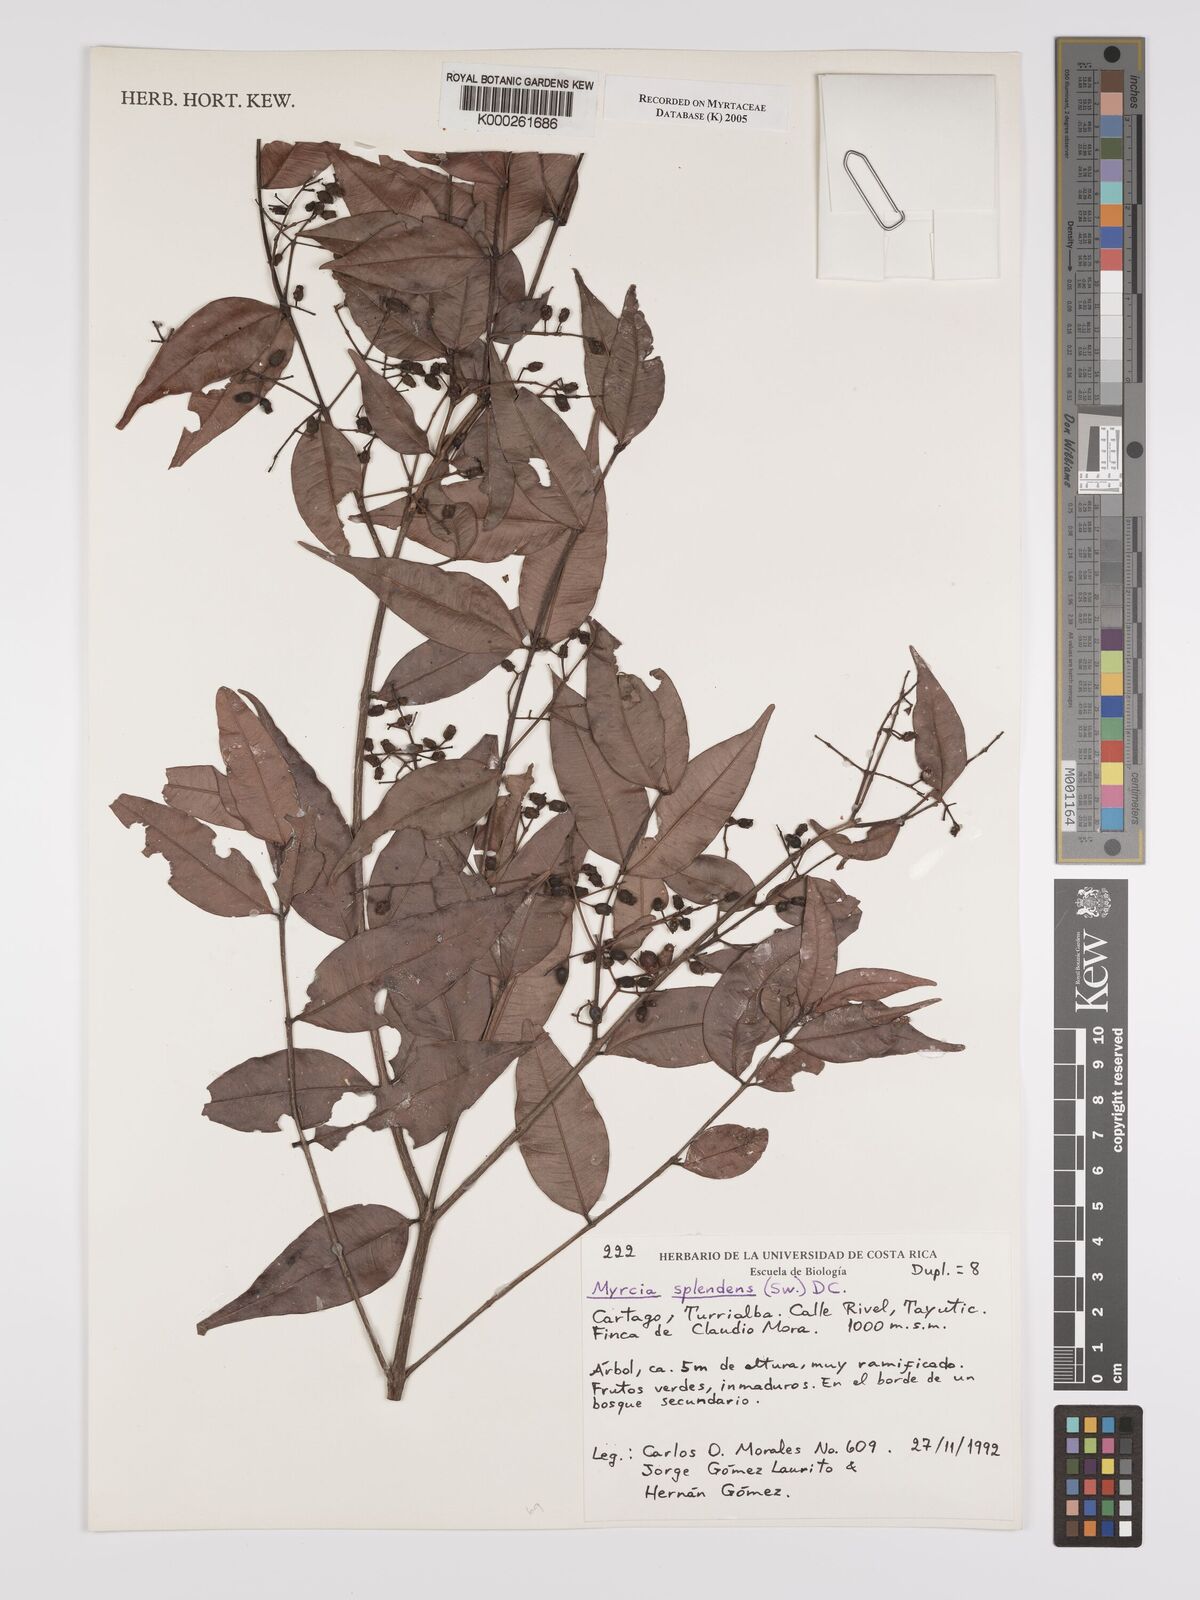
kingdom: Plantae
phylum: Tracheophyta
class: Magnoliopsida
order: Myrtales
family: Myrtaceae
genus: Myrcia
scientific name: Myrcia splendens
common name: Surinam cherry
